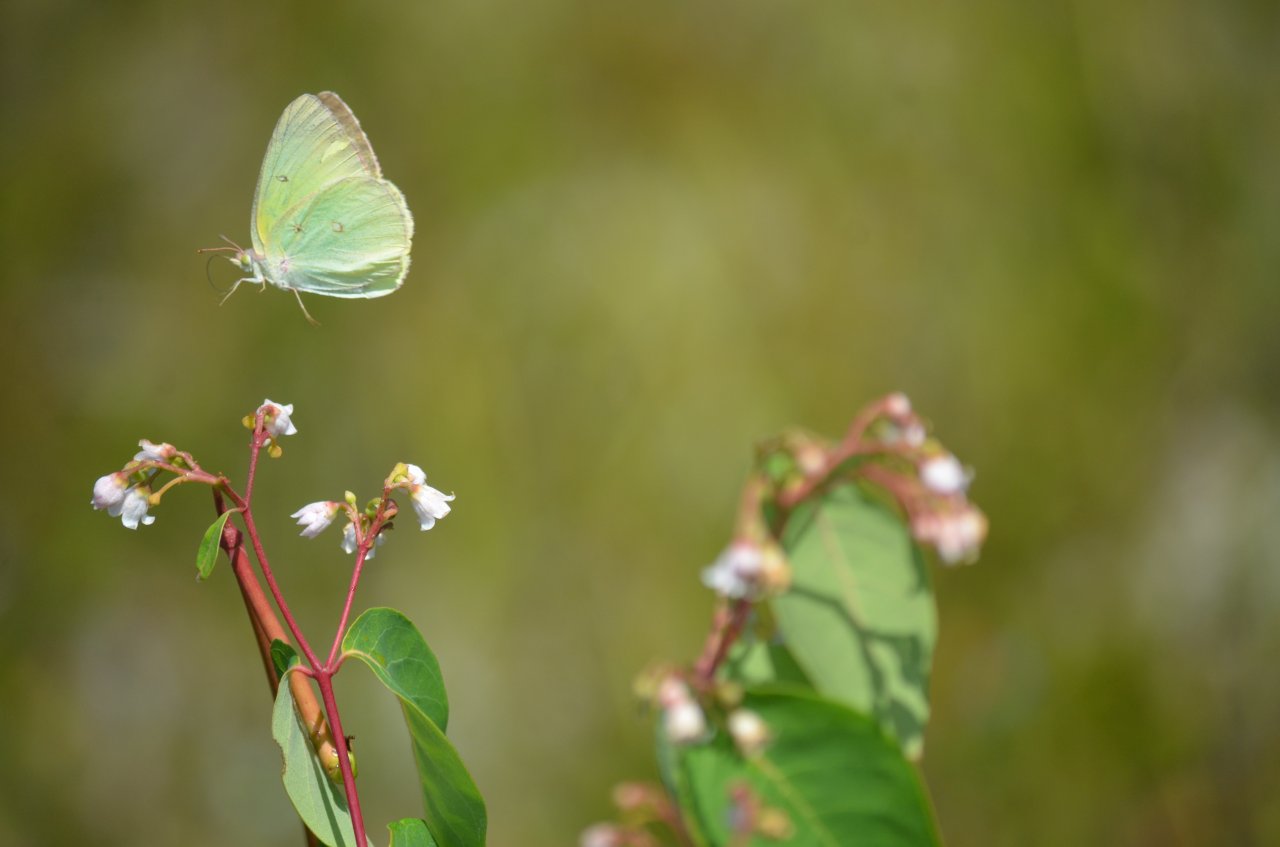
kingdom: Animalia
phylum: Arthropoda
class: Insecta
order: Lepidoptera
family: Pieridae
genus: Colias
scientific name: Colias interior
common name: Pink-edged Sulphur
